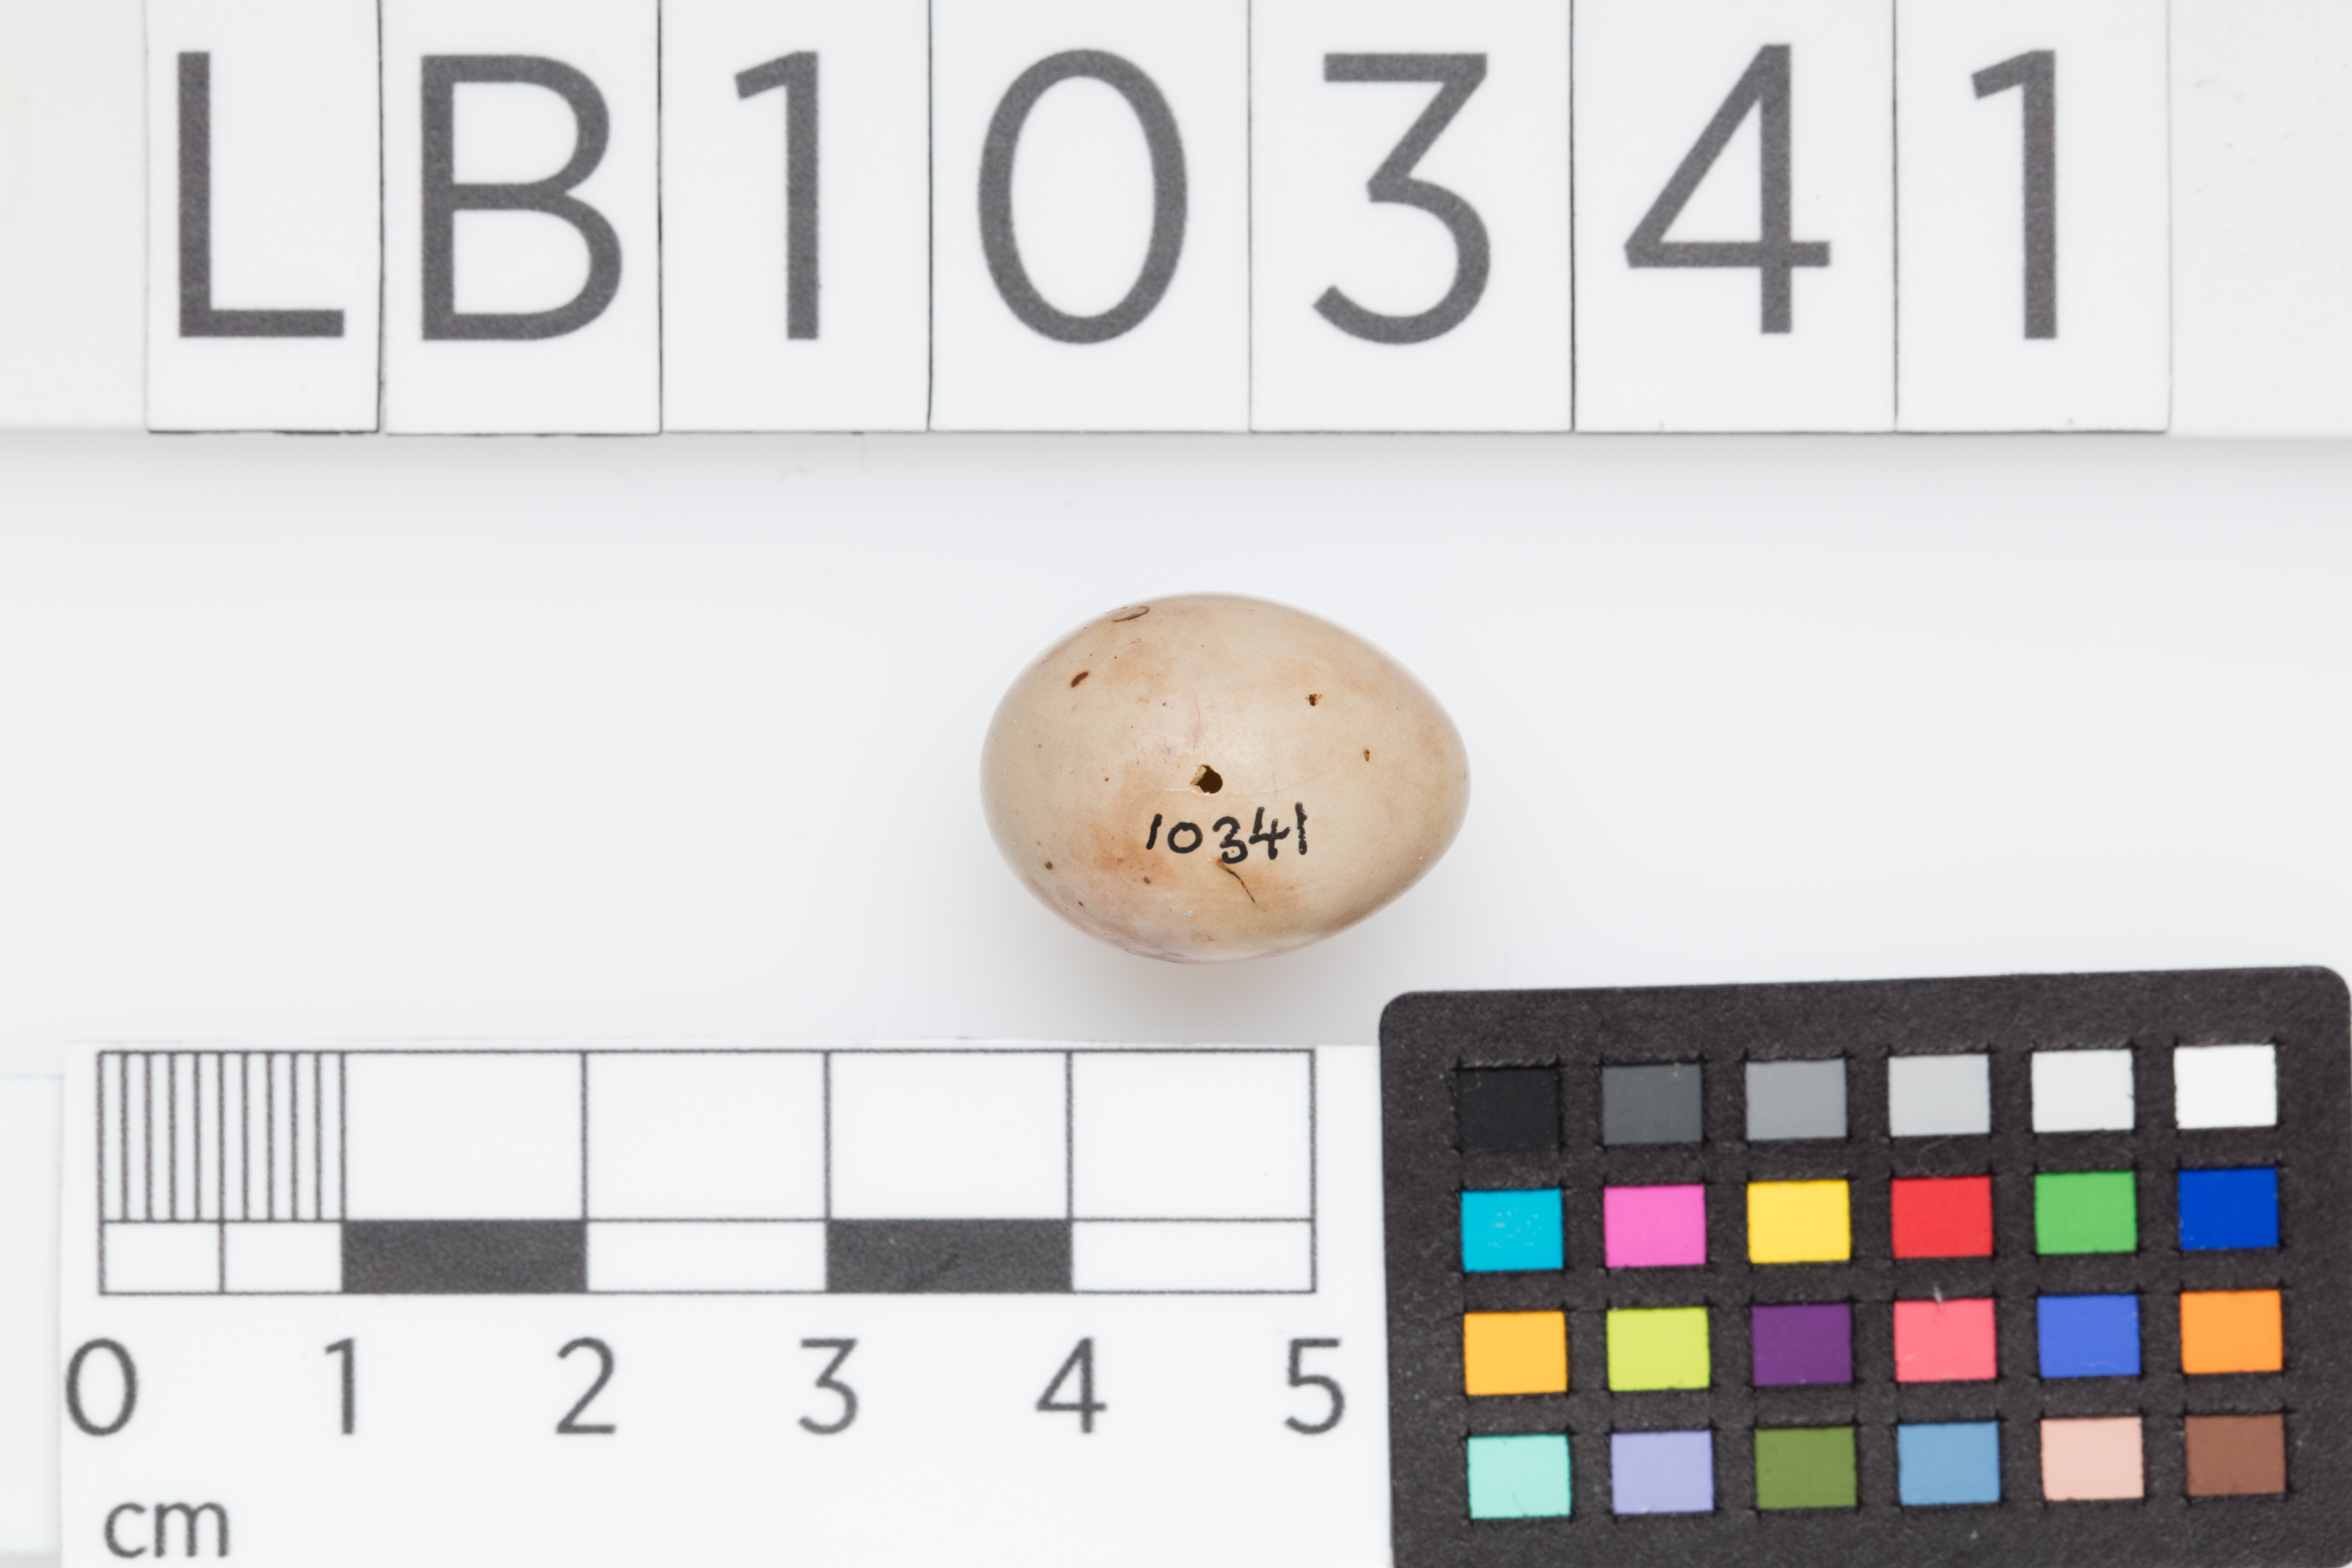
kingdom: Animalia
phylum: Chordata
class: Aves
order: Passeriformes
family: Fringillidae
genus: Fringilla
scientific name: Fringilla coelebs
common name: Common chaffinch
